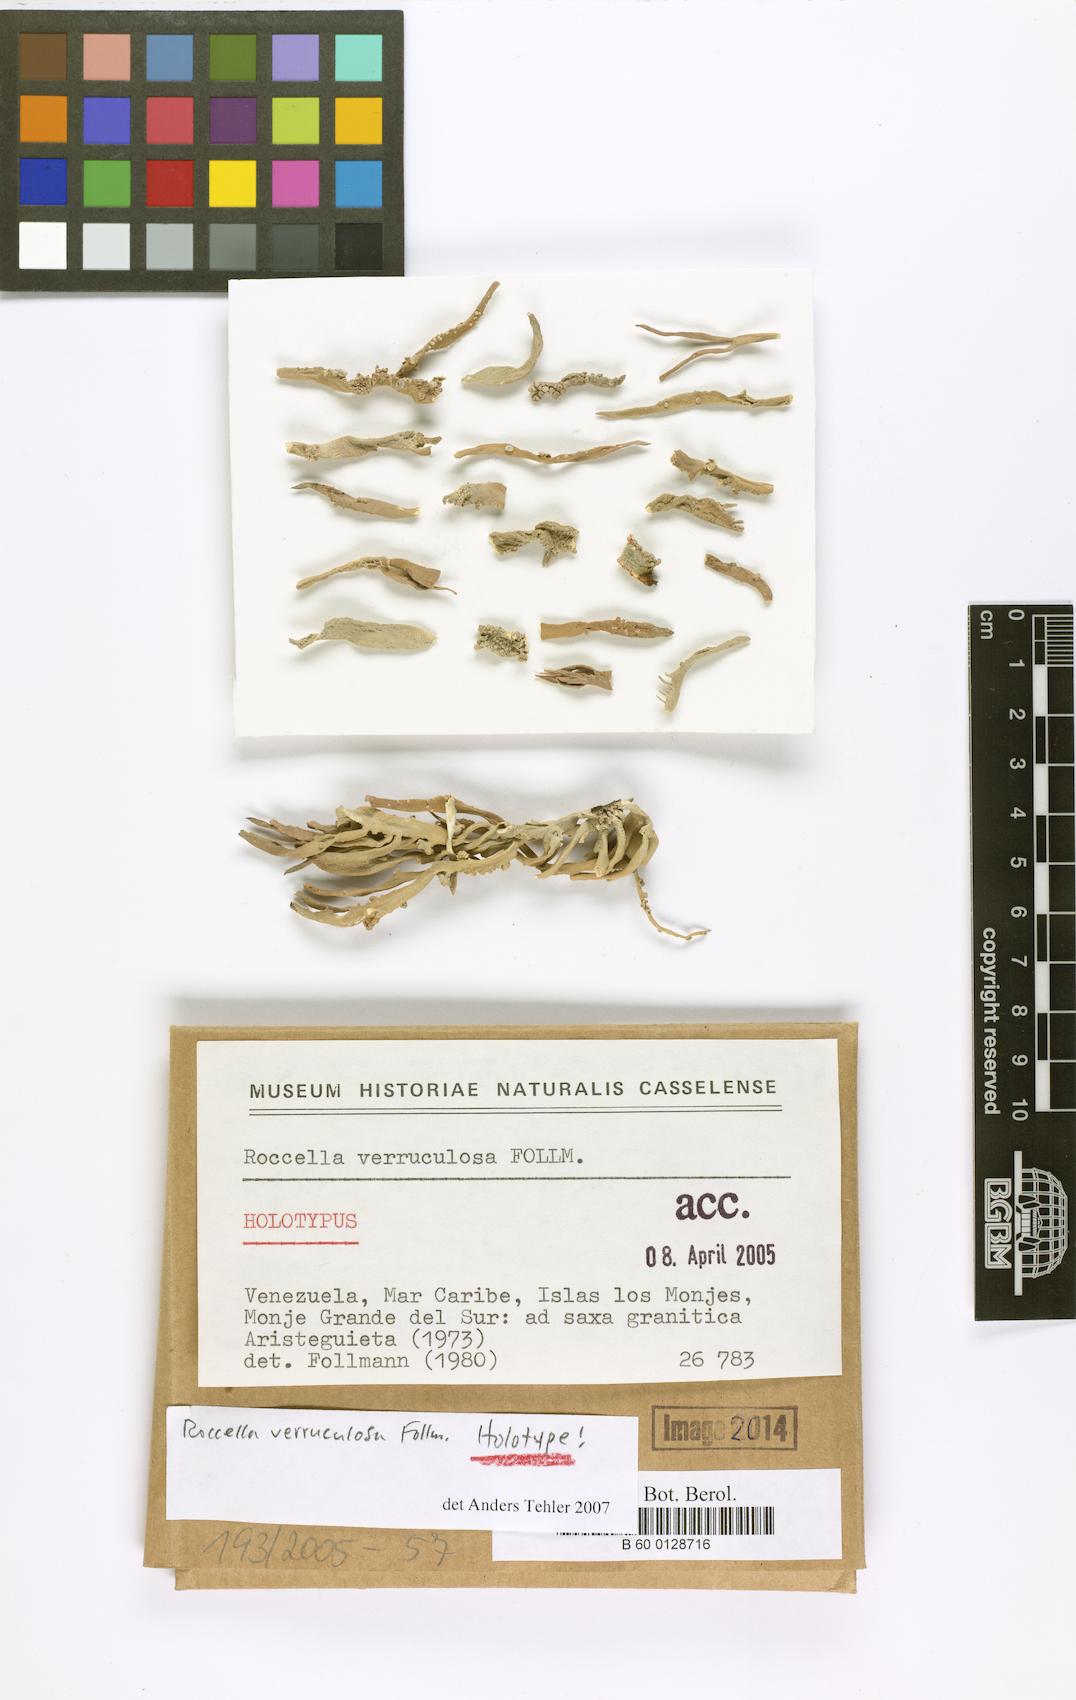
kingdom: Fungi
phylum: Ascomycota
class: Lecanoromycetes
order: Lecanorales
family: Ramalinaceae
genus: Ramalina
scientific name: Ramalina
